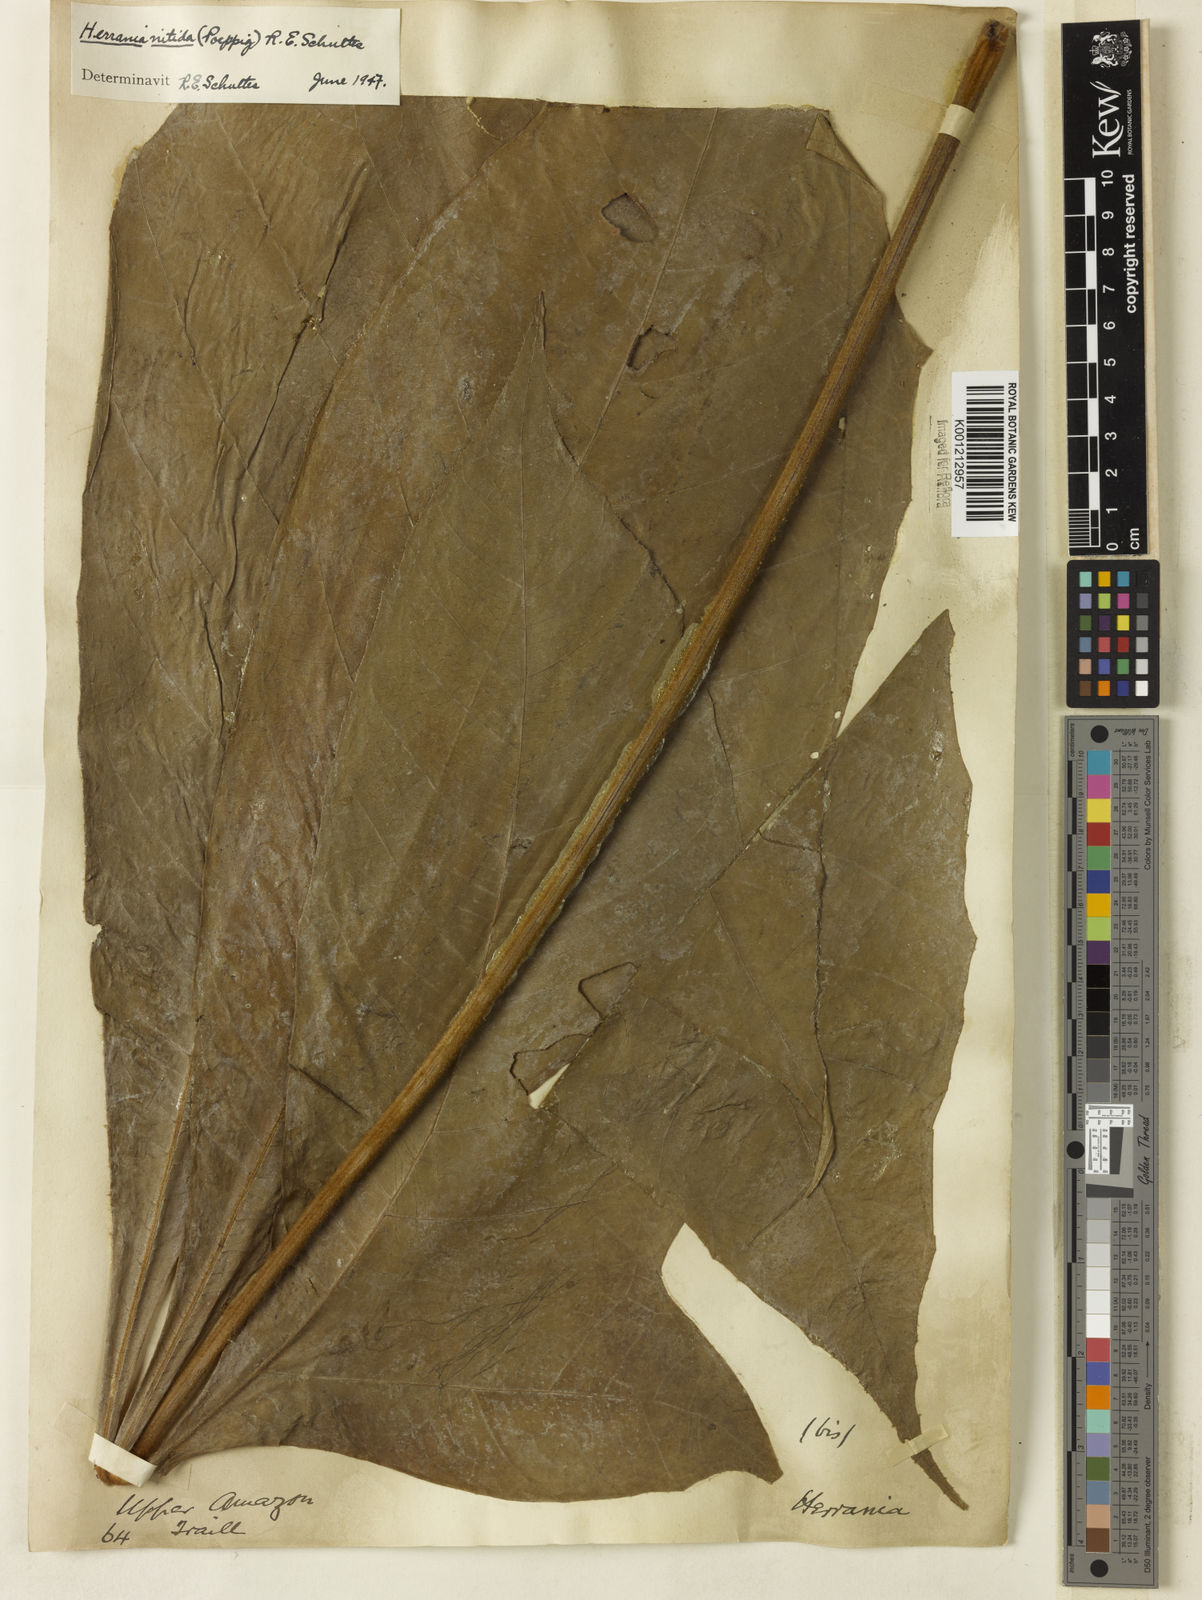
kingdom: Plantae
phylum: Tracheophyta
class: Magnoliopsida
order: Malvales
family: Malvaceae
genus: Herrania
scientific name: Herrania mariae
